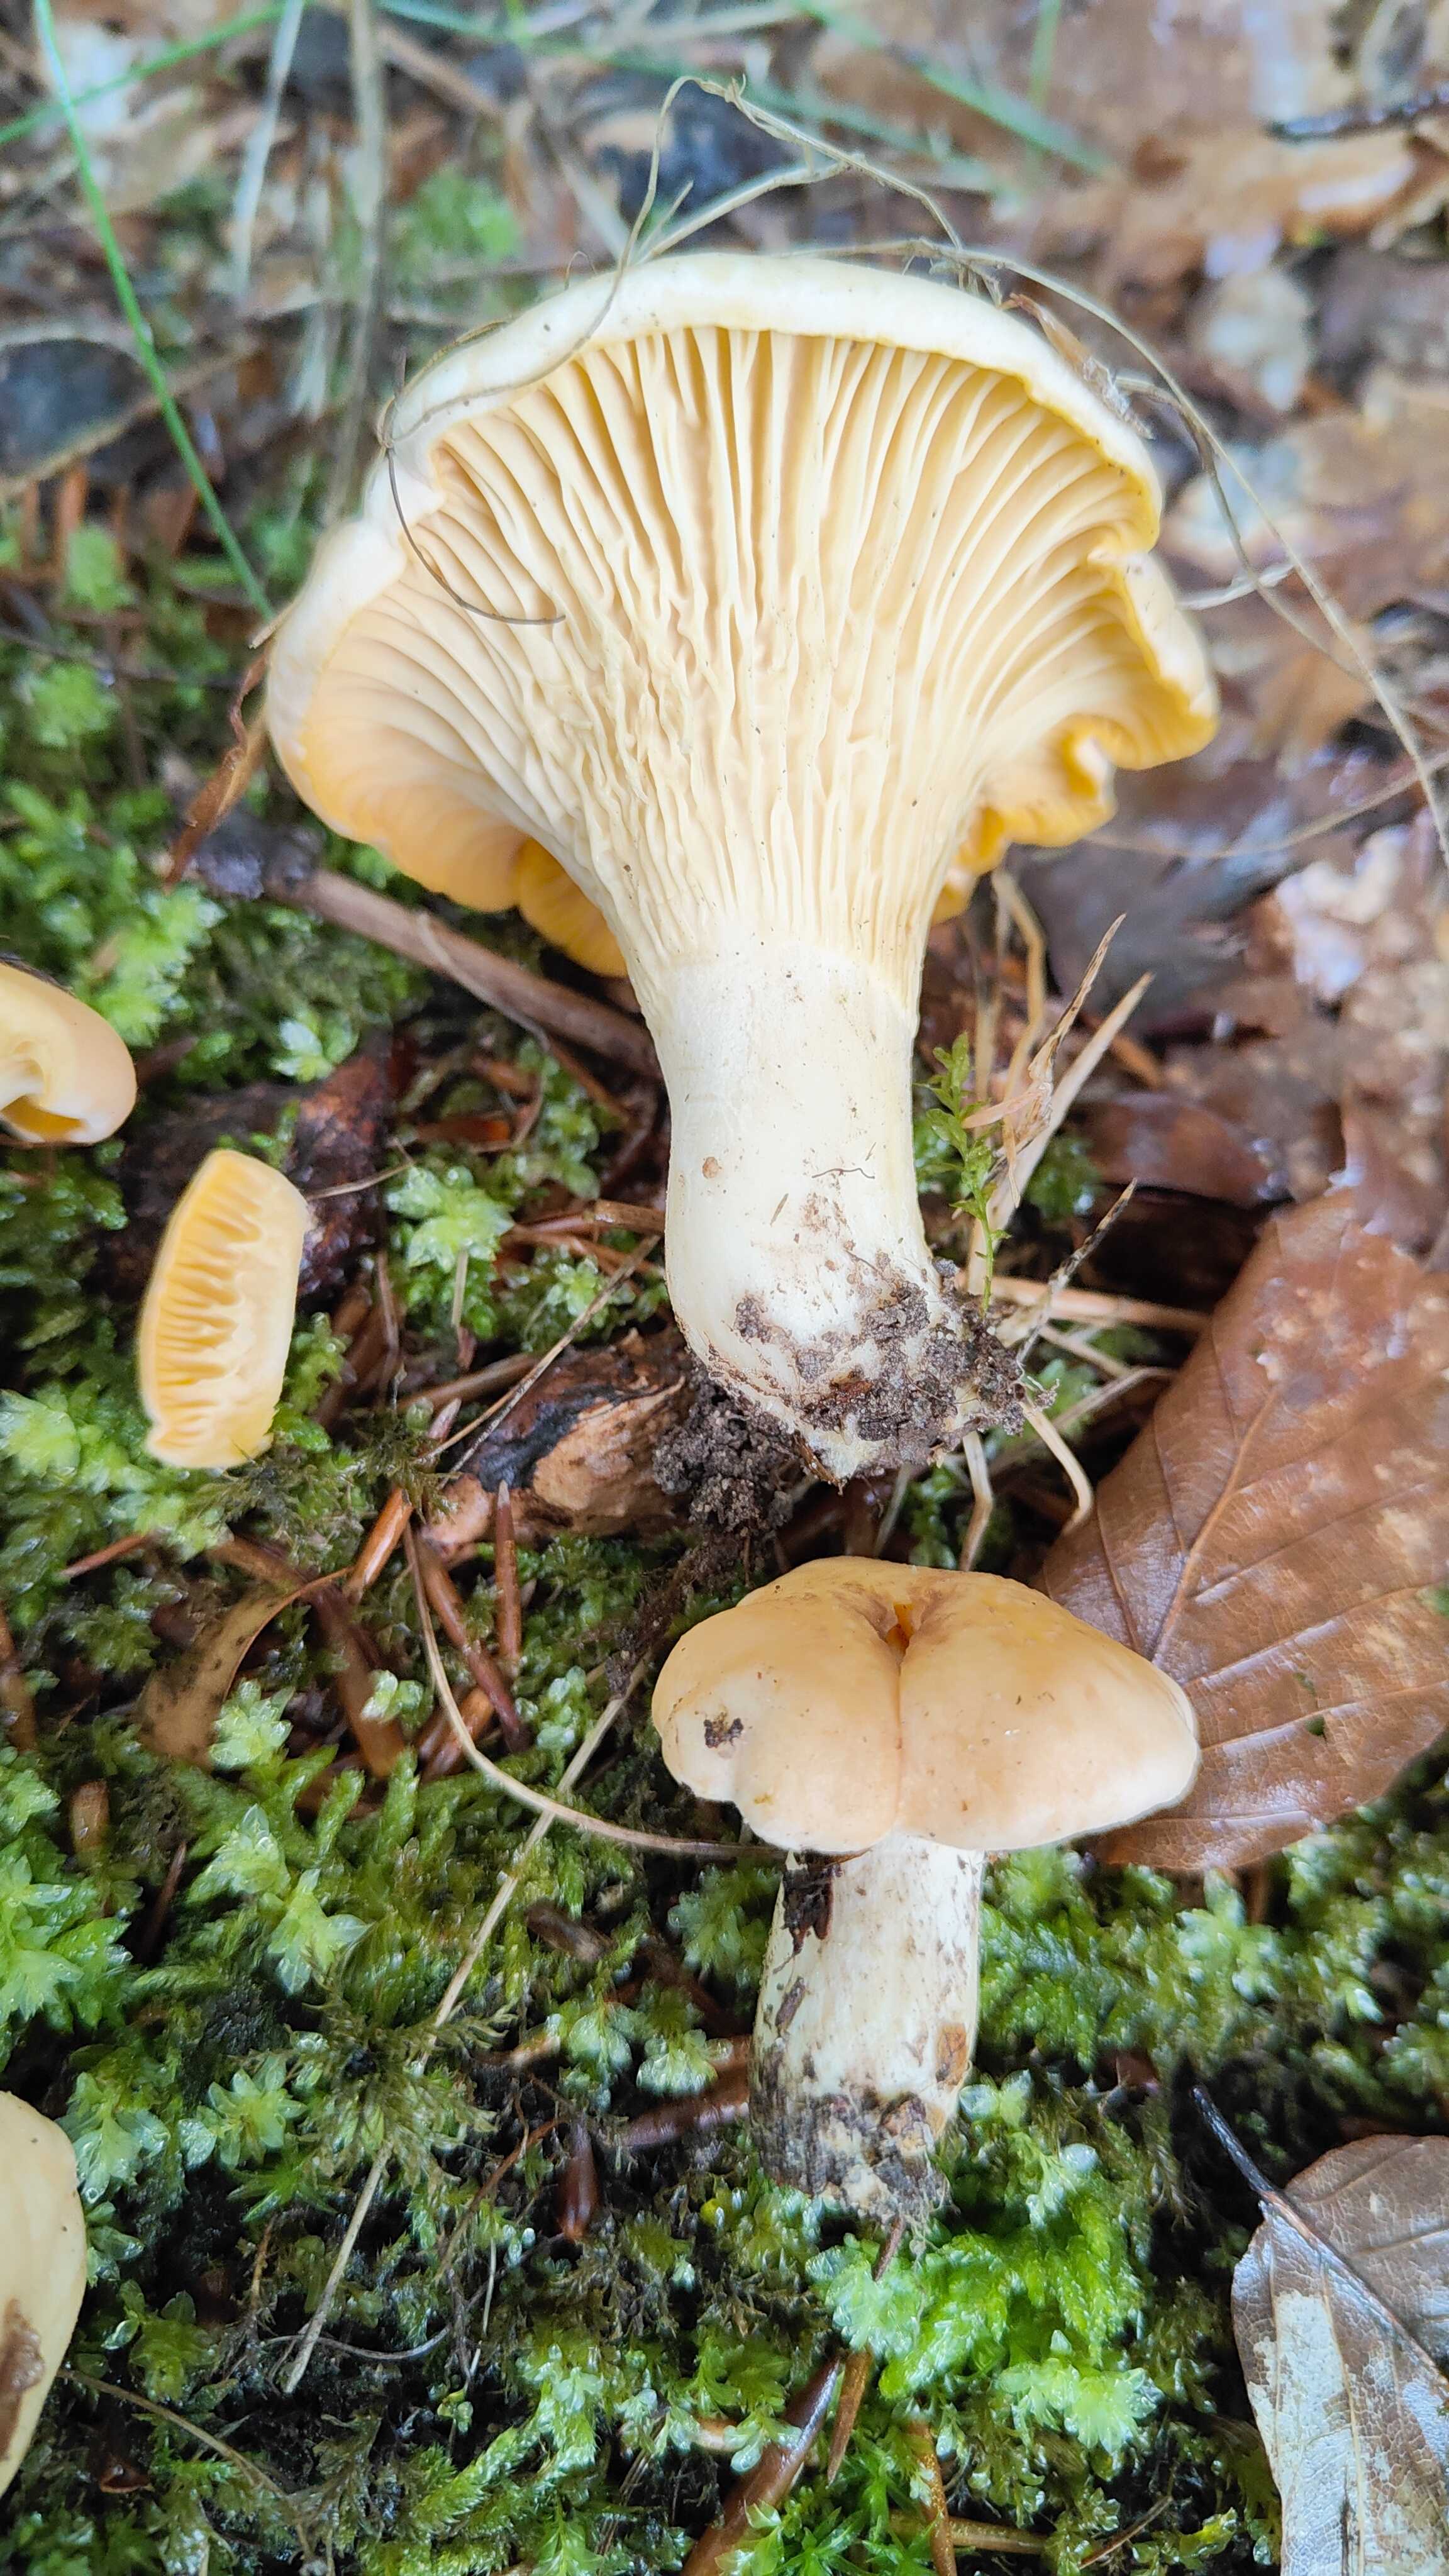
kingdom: Fungi
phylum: Basidiomycota
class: Agaricomycetes
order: Cantharellales
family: Hydnaceae
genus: Cantharellus
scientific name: Cantharellus pallens
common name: bleg kantarel
